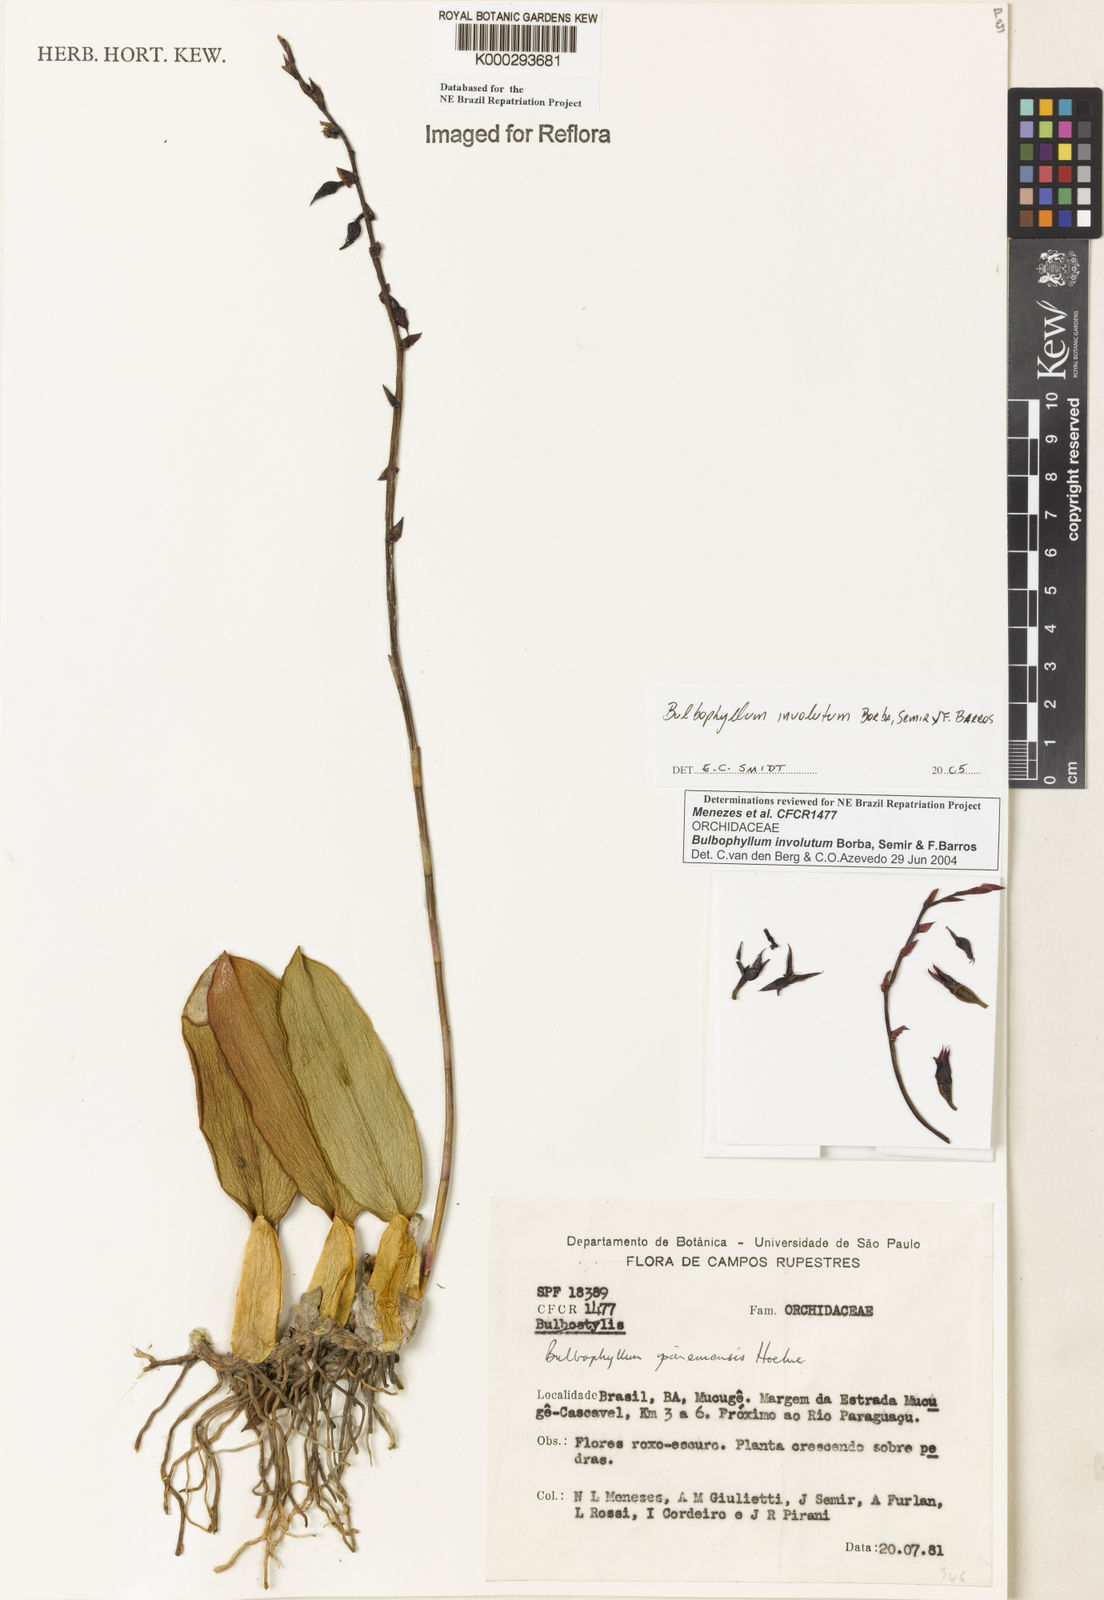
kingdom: Plantae
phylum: Tracheophyta
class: Liliopsida
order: Asparagales
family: Orchidaceae
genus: Bulbophyllum
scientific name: Bulbophyllum involutum
